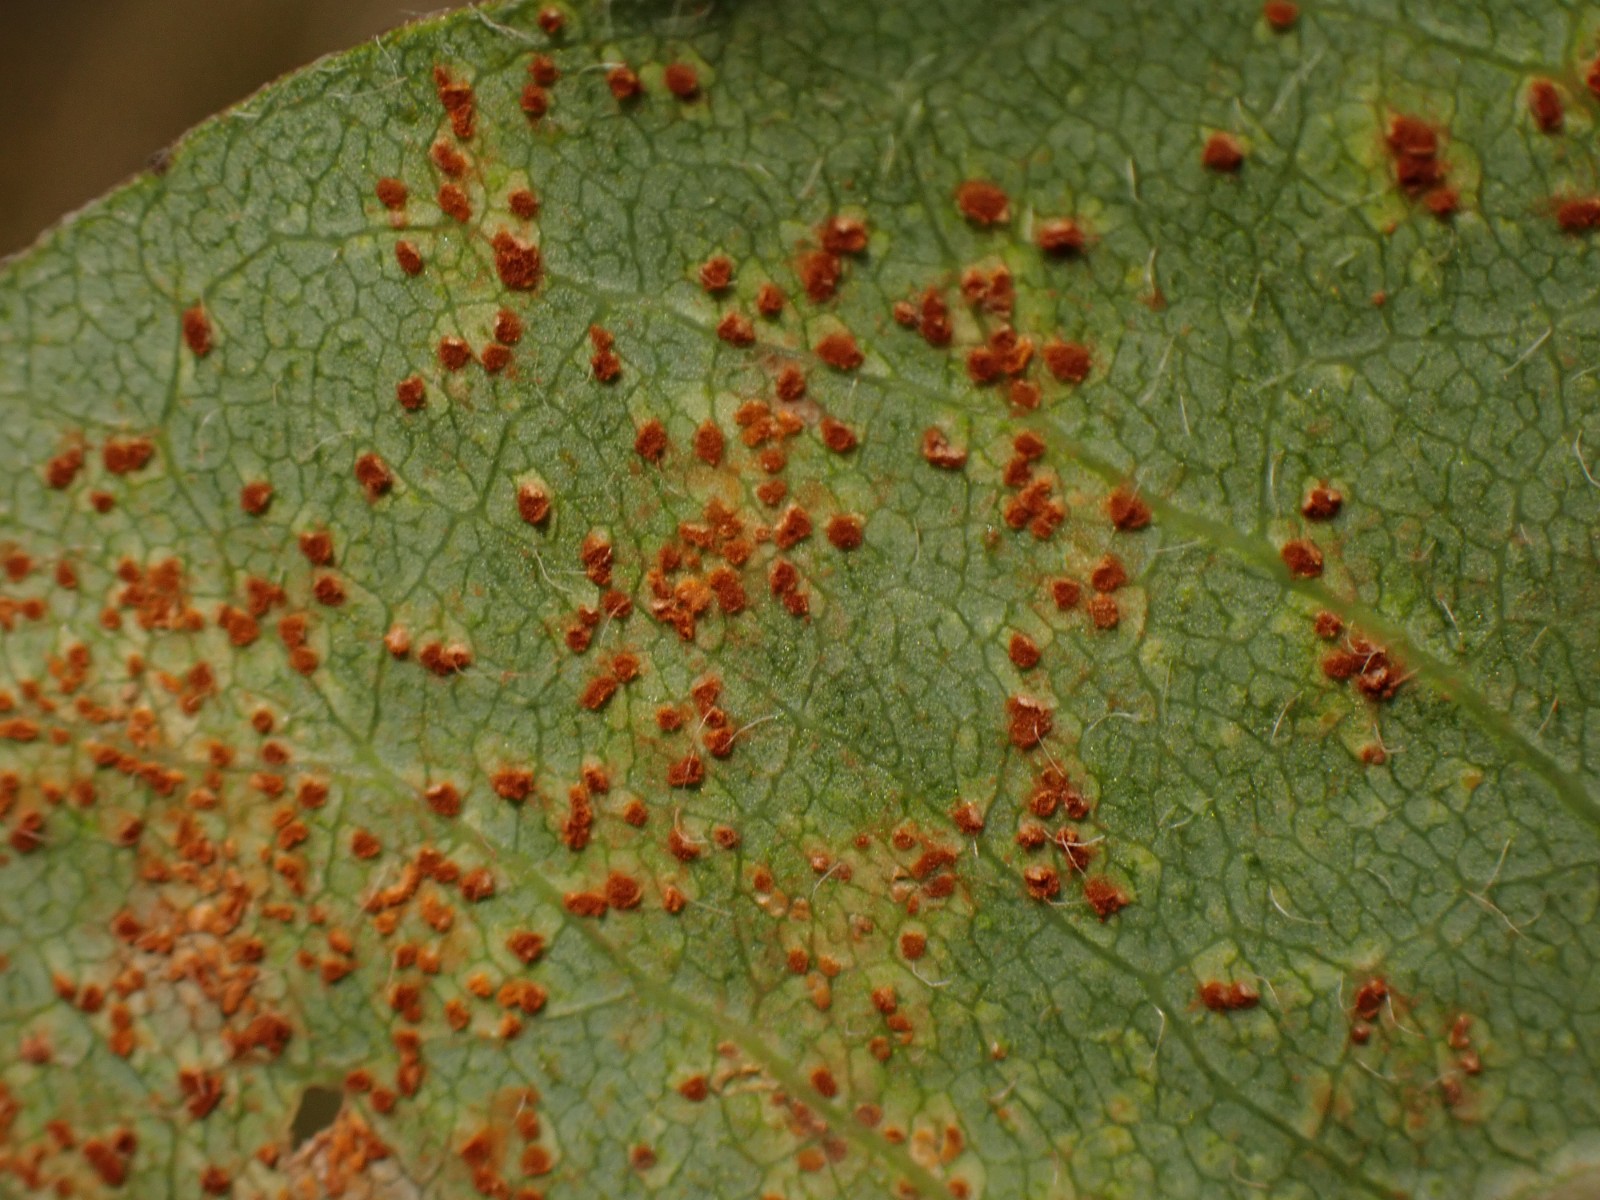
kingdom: Fungi
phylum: Basidiomycota
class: Pucciniomycetes
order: Pucciniales
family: Pucciniaceae
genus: Uromyces
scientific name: Uromyces pisi-sativi
